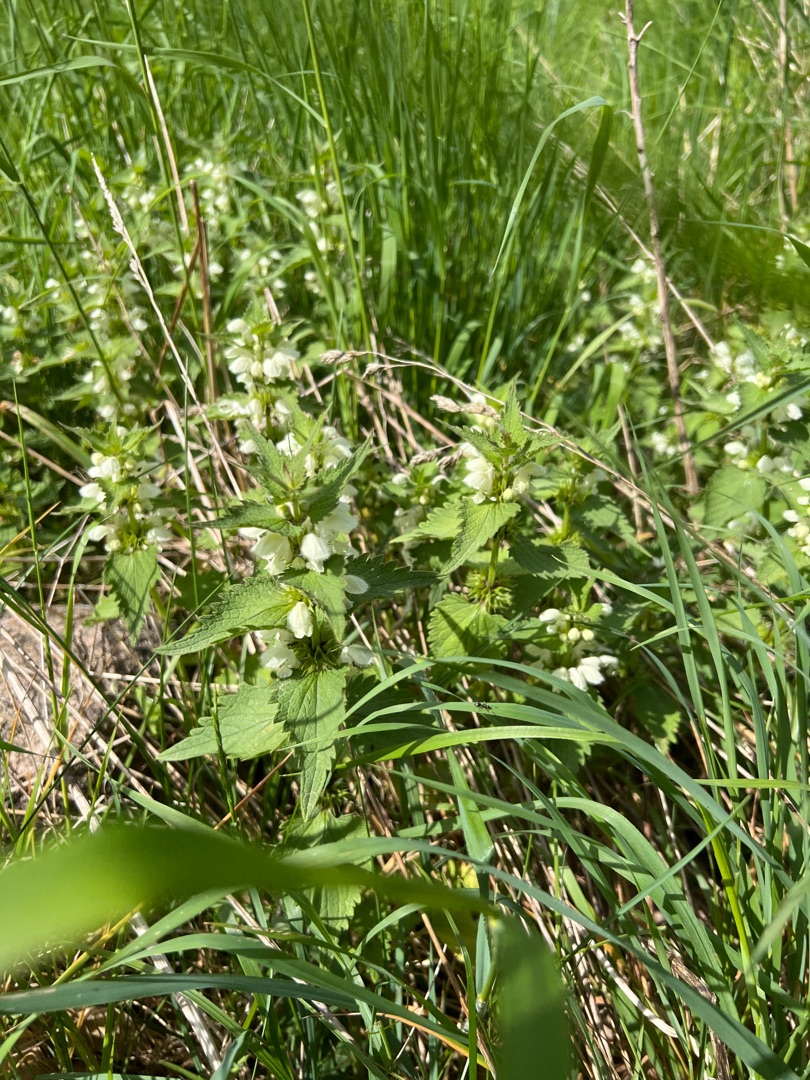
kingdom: Plantae
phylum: Tracheophyta
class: Magnoliopsida
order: Lamiales
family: Lamiaceae
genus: Lamium
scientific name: Lamium album
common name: Døvnælde
